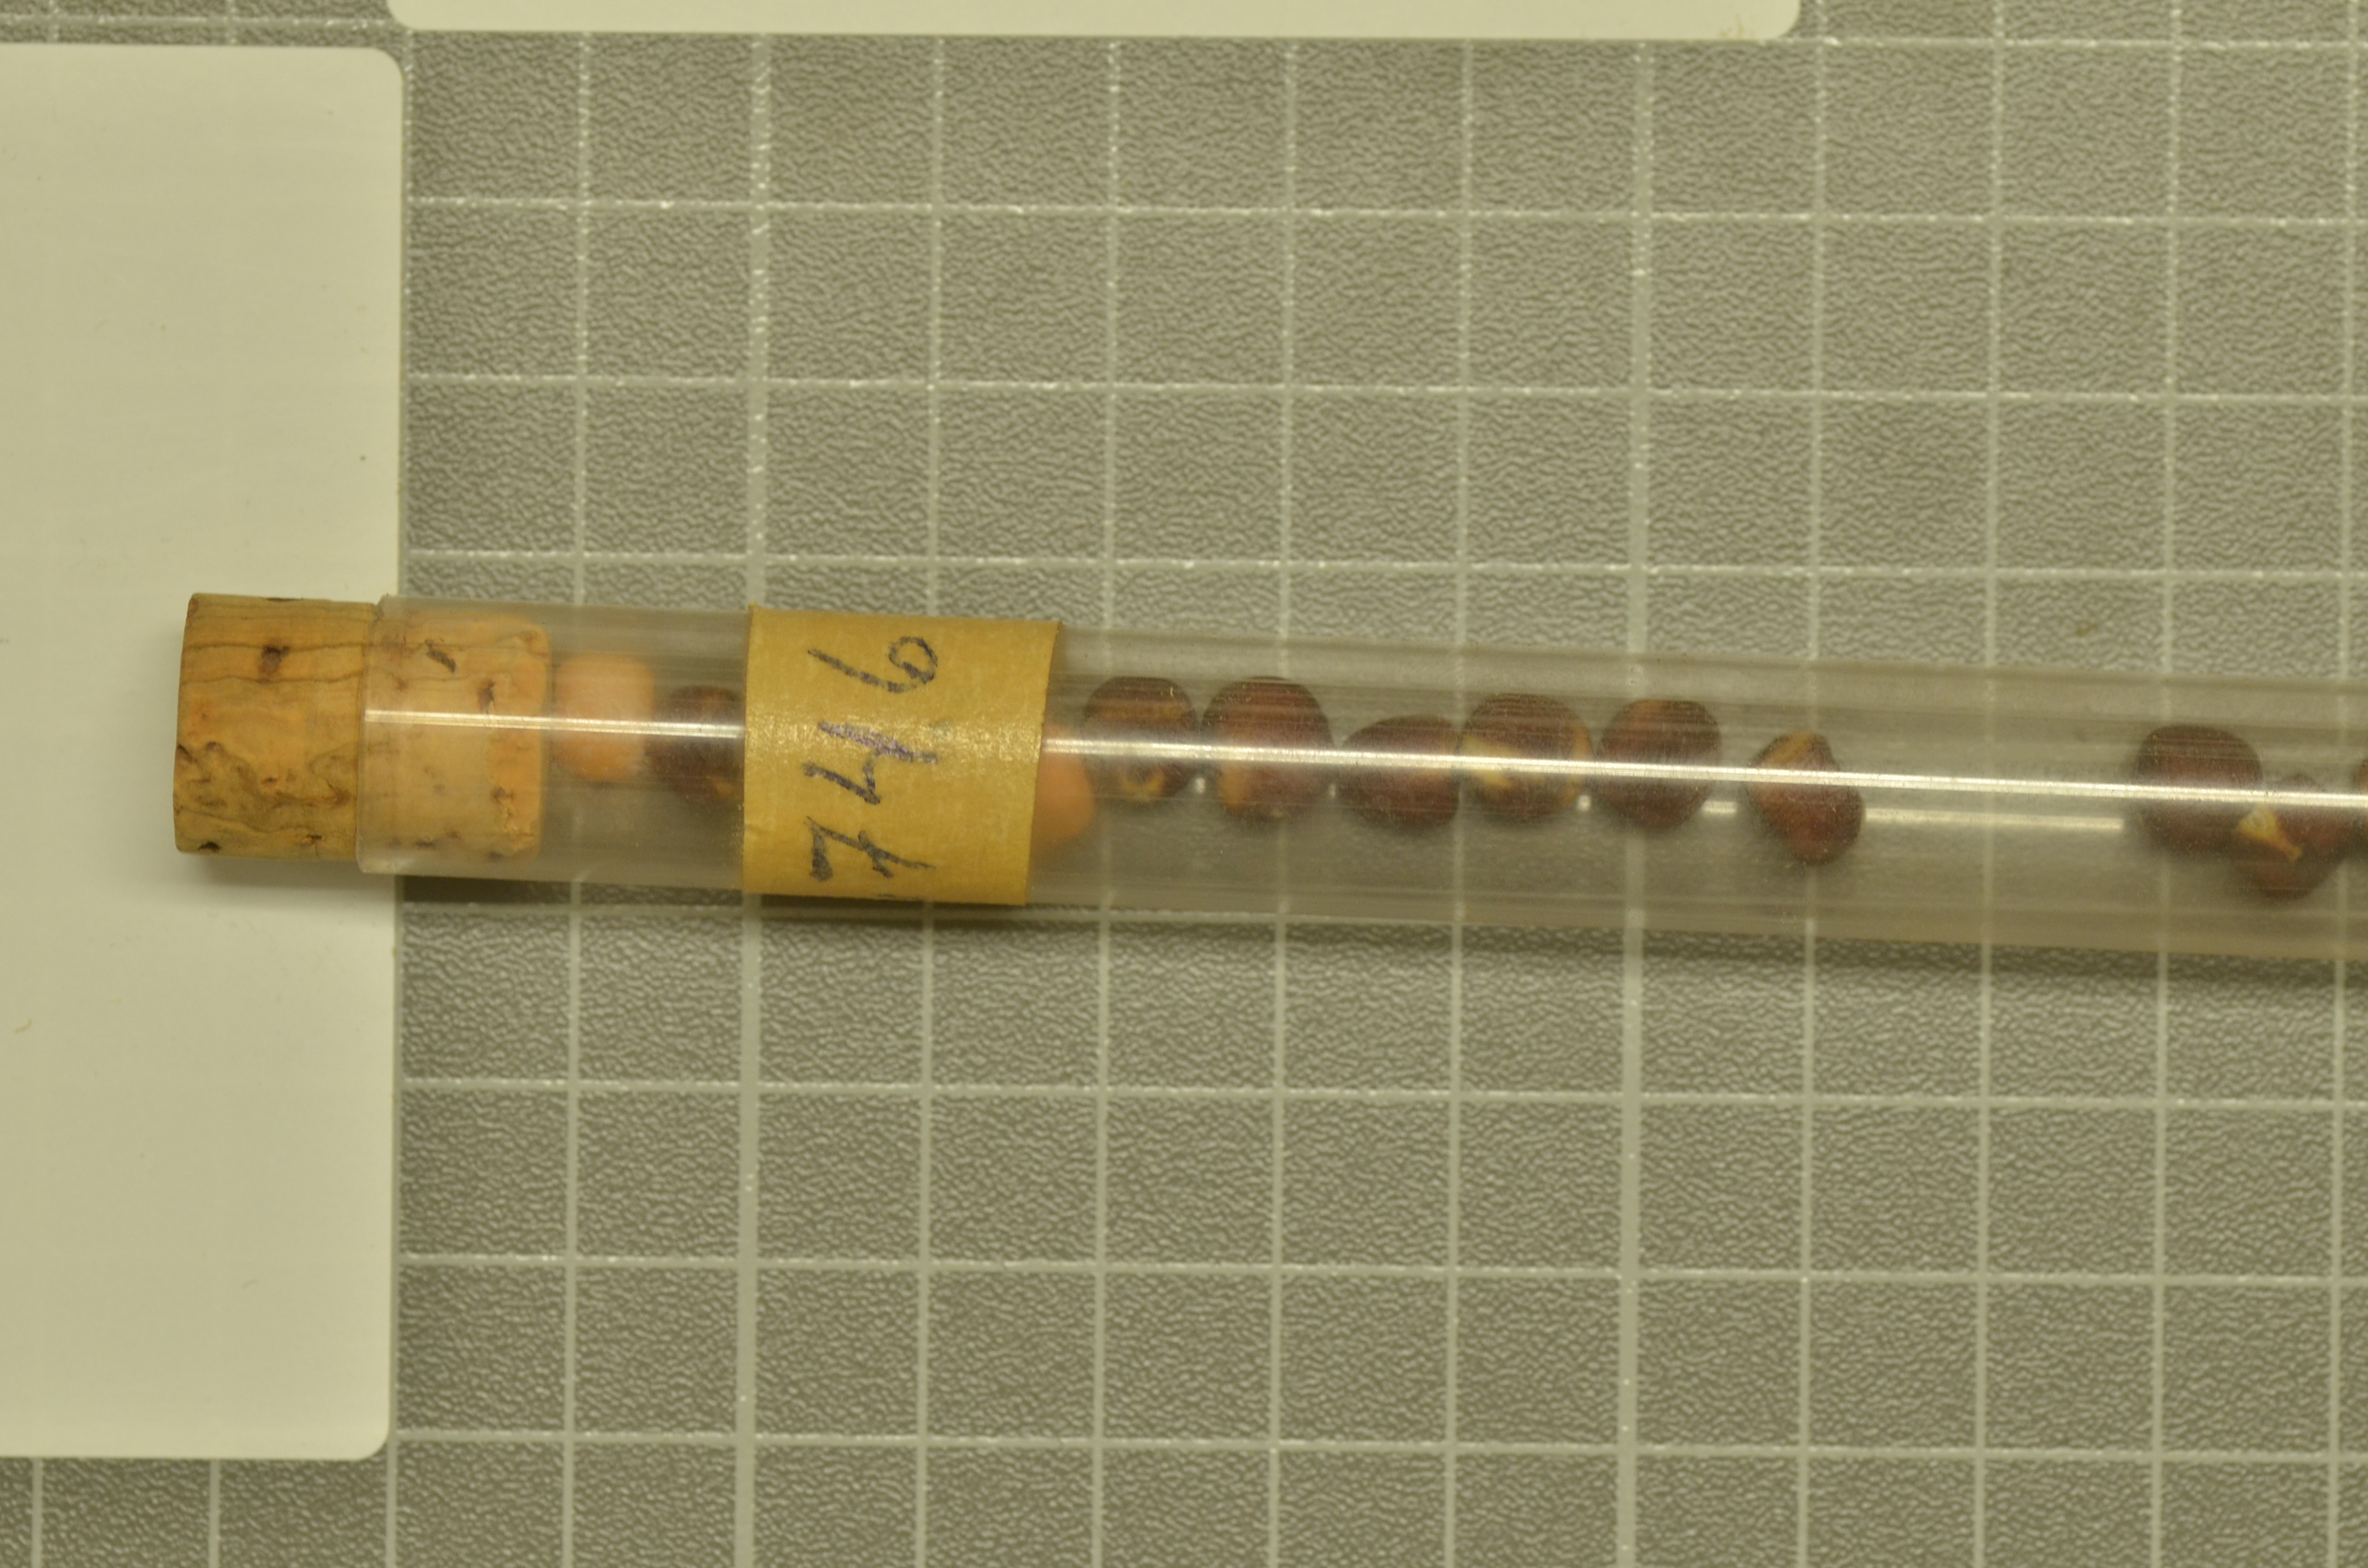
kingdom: Plantae
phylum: Tracheophyta
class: Magnoliopsida
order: Fabales
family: Fabaceae
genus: Lathyrus
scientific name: Lathyrus oleraceus
